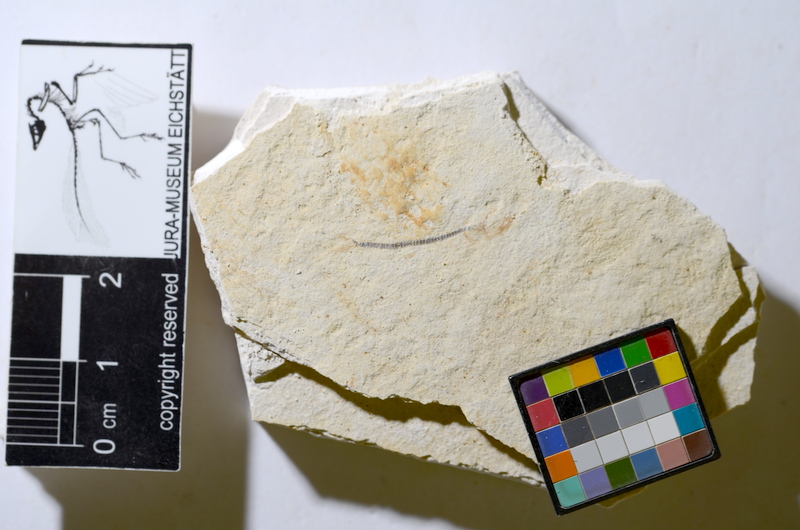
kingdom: Animalia
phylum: Chordata
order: Salmoniformes
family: Orthogonikleithridae
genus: Orthogonikleithrus
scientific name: Orthogonikleithrus hoelli
